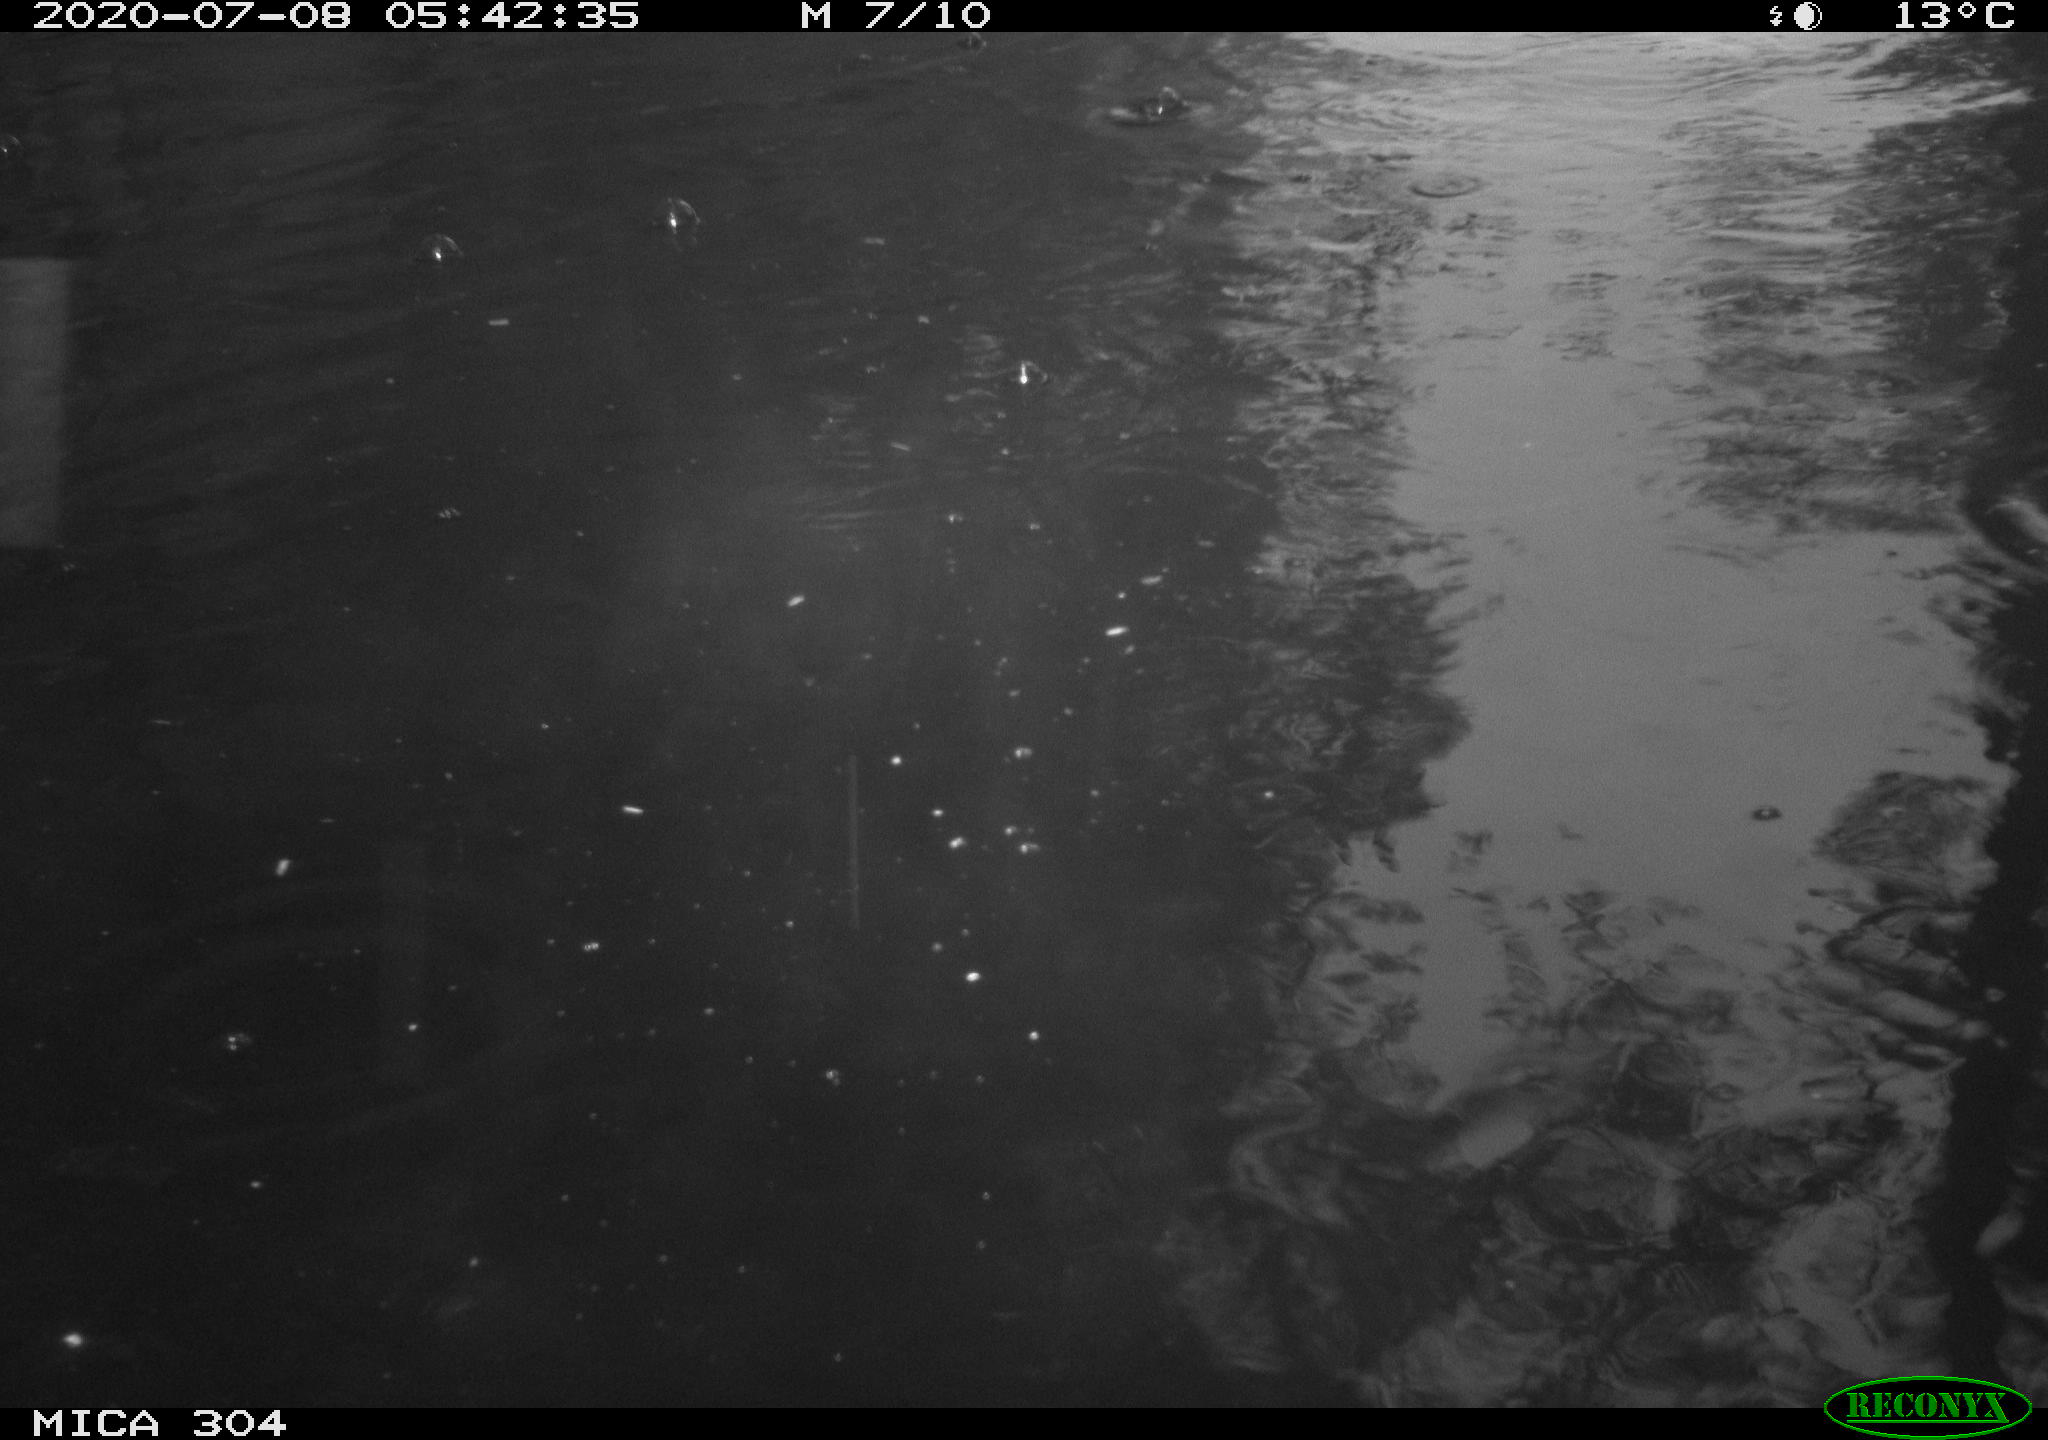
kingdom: Animalia
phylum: Chordata
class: Aves
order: Anseriformes
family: Anatidae
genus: Anas
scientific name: Anas platyrhynchos
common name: Mallard
